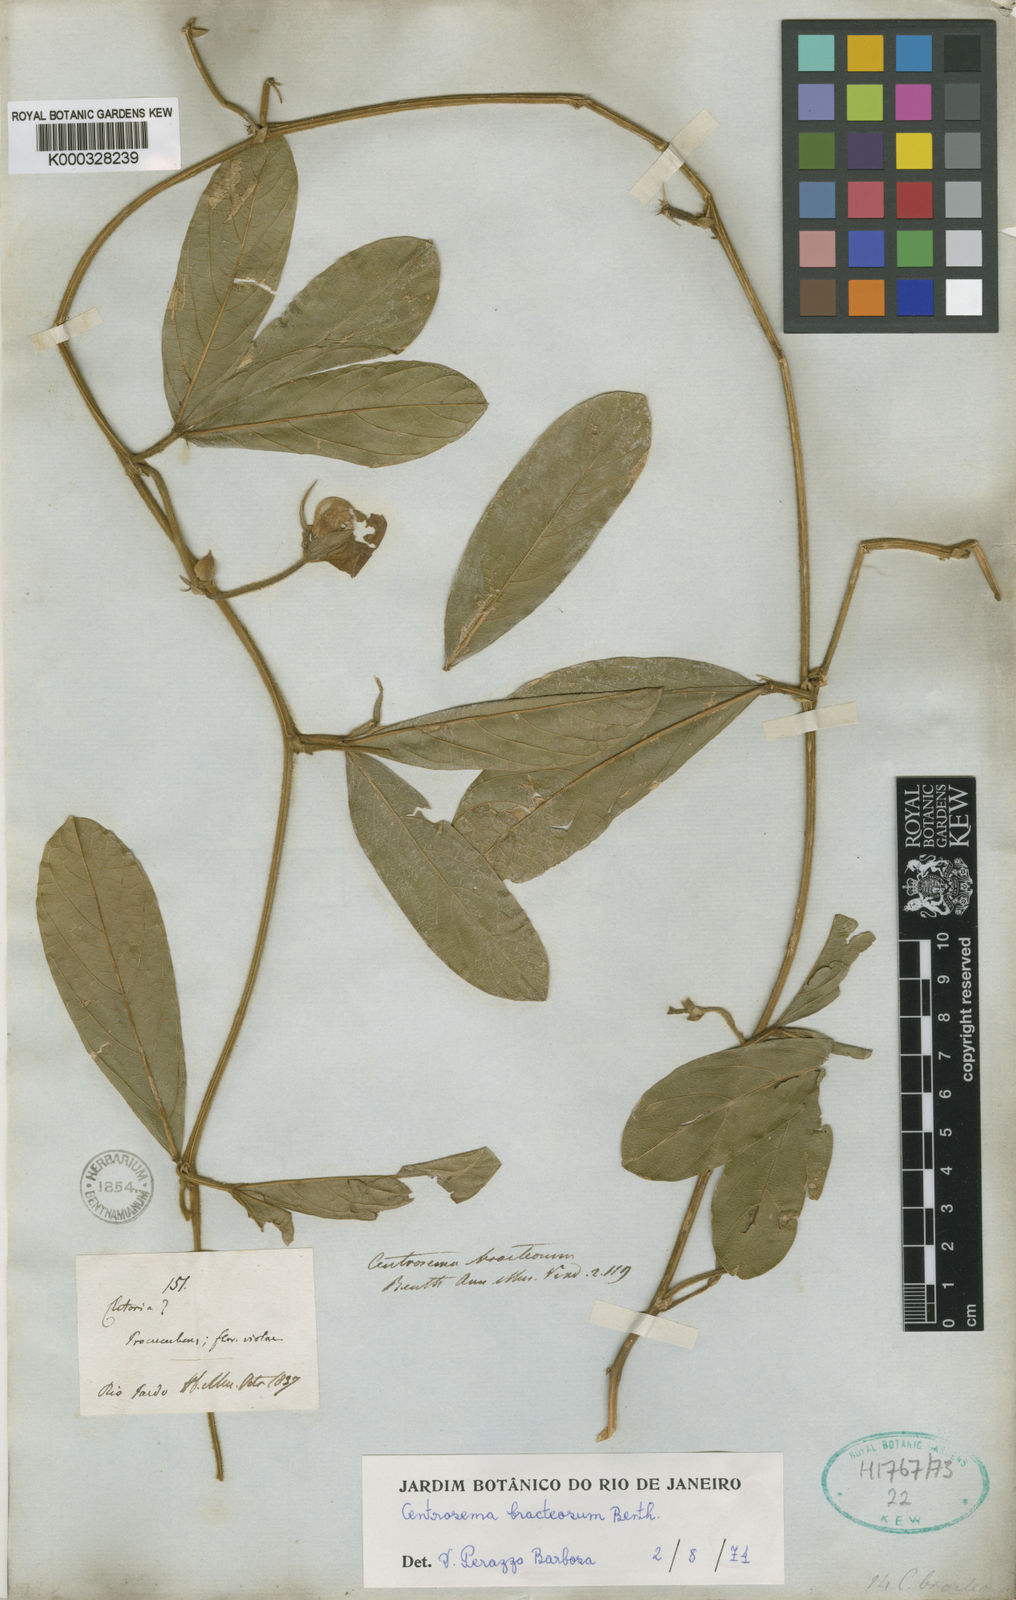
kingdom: Plantae
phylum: Tracheophyta
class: Magnoliopsida
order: Fabales
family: Fabaceae
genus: Centrosema
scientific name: Centrosema bracteosum
